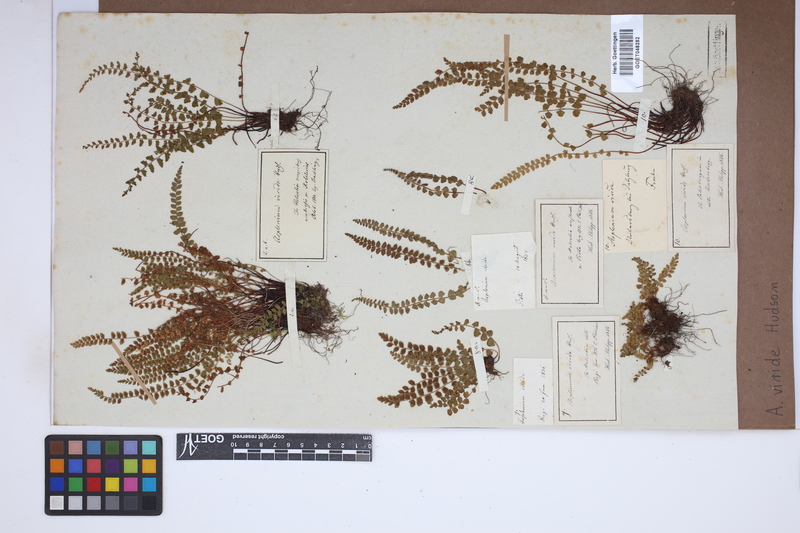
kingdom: Plantae
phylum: Tracheophyta
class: Polypodiopsida
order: Polypodiales
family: Aspleniaceae
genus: Asplenium
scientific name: Asplenium viride
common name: Green spleenwort
